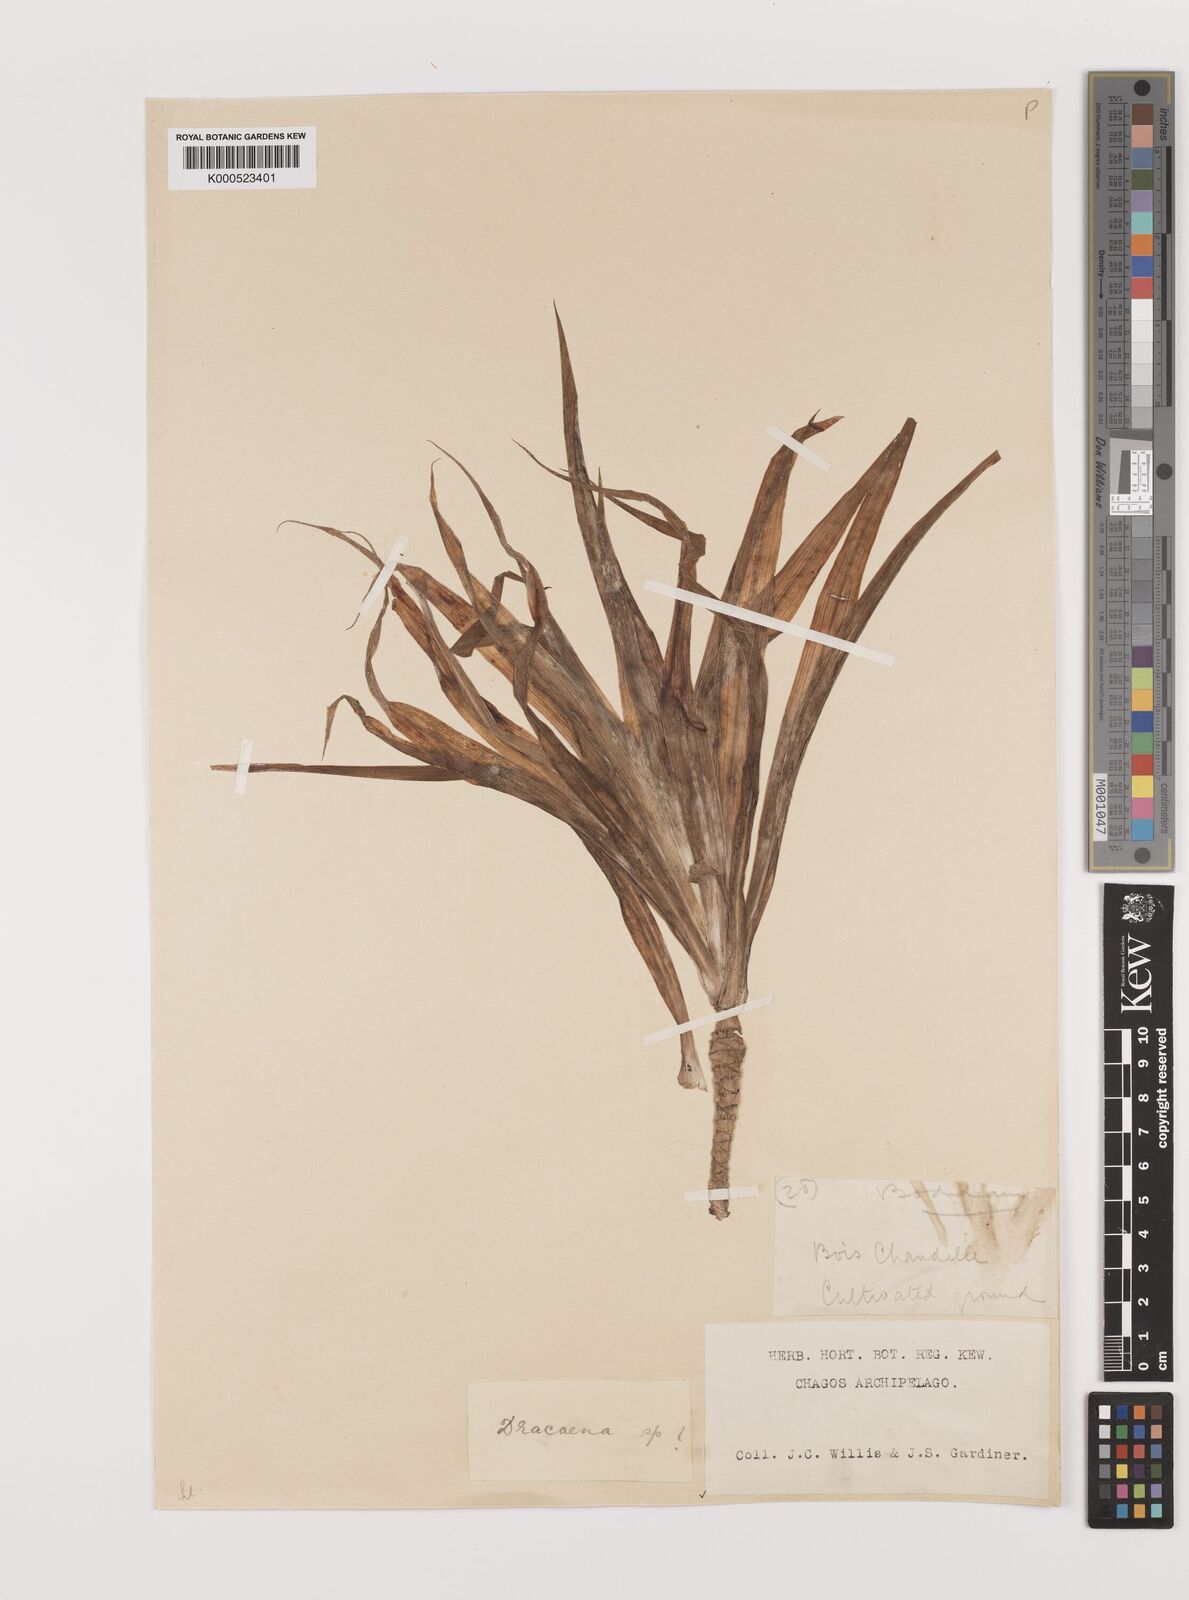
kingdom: Plantae
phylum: Tracheophyta
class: Liliopsida
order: Asparagales
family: Asparagaceae
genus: Dracaena
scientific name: Dracaena reflexa
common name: Song-of-india
